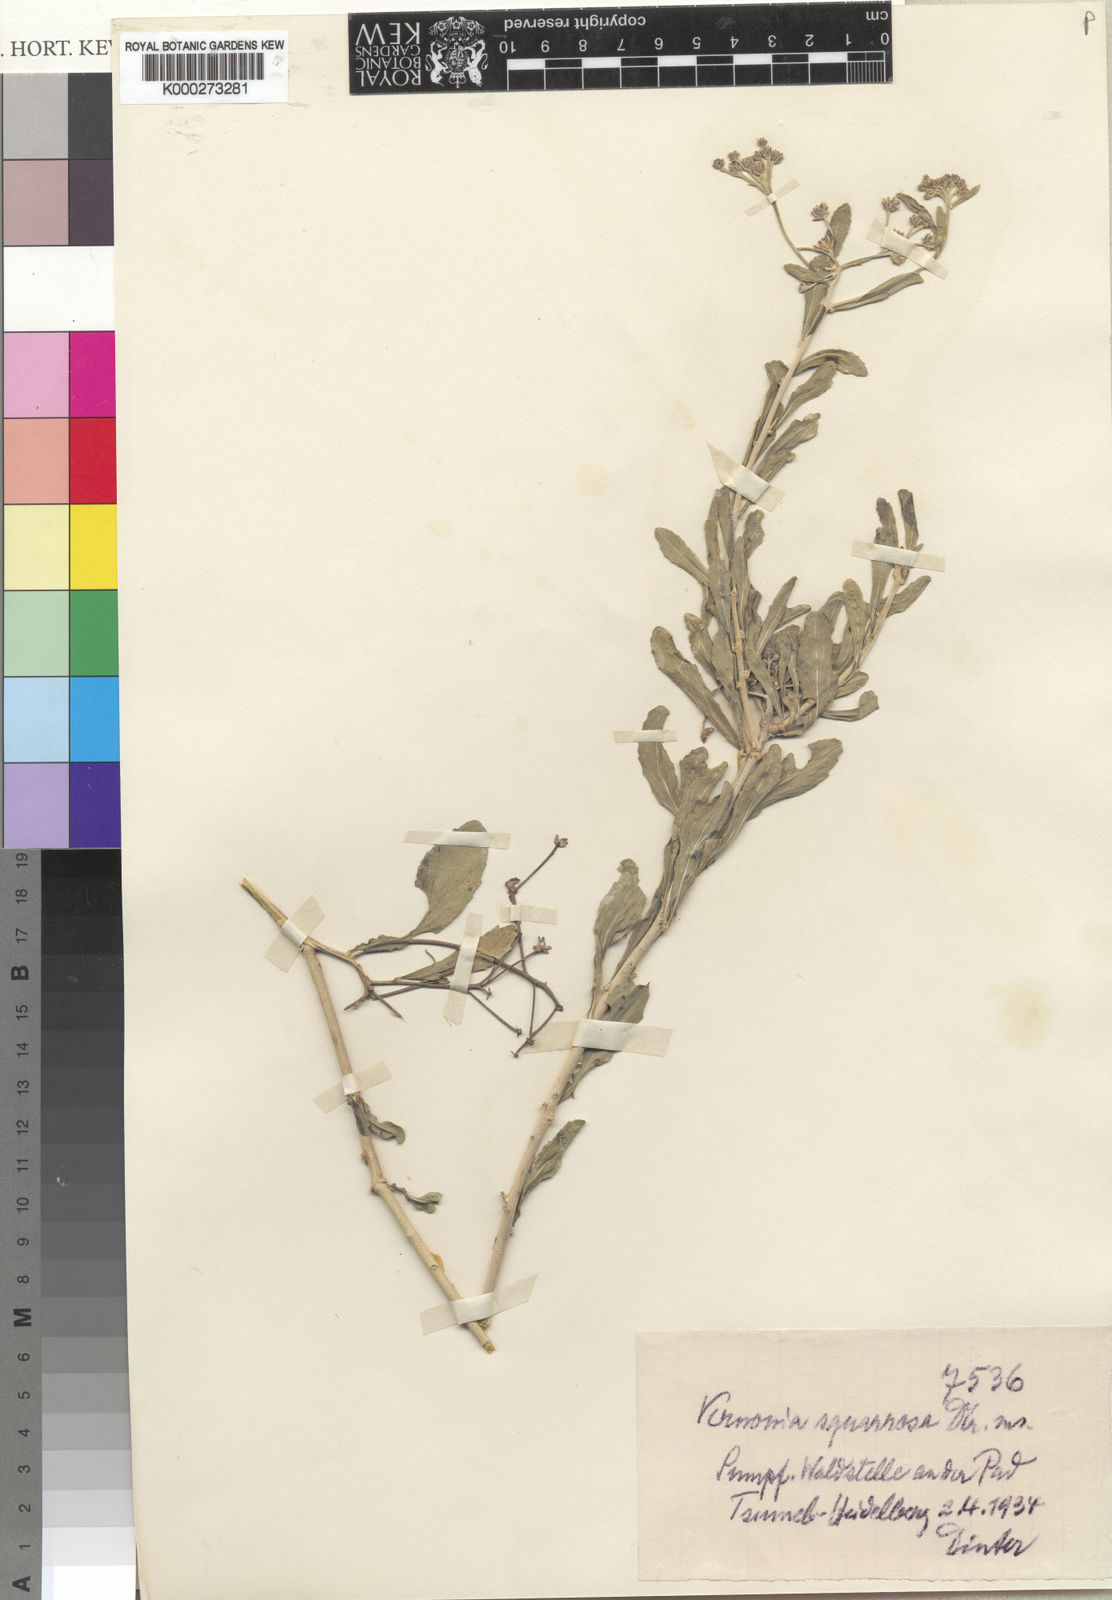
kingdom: Plantae
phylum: Tracheophyta
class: Magnoliopsida
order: Asterales
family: Asteraceae
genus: Vernonia
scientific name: Vernonia
